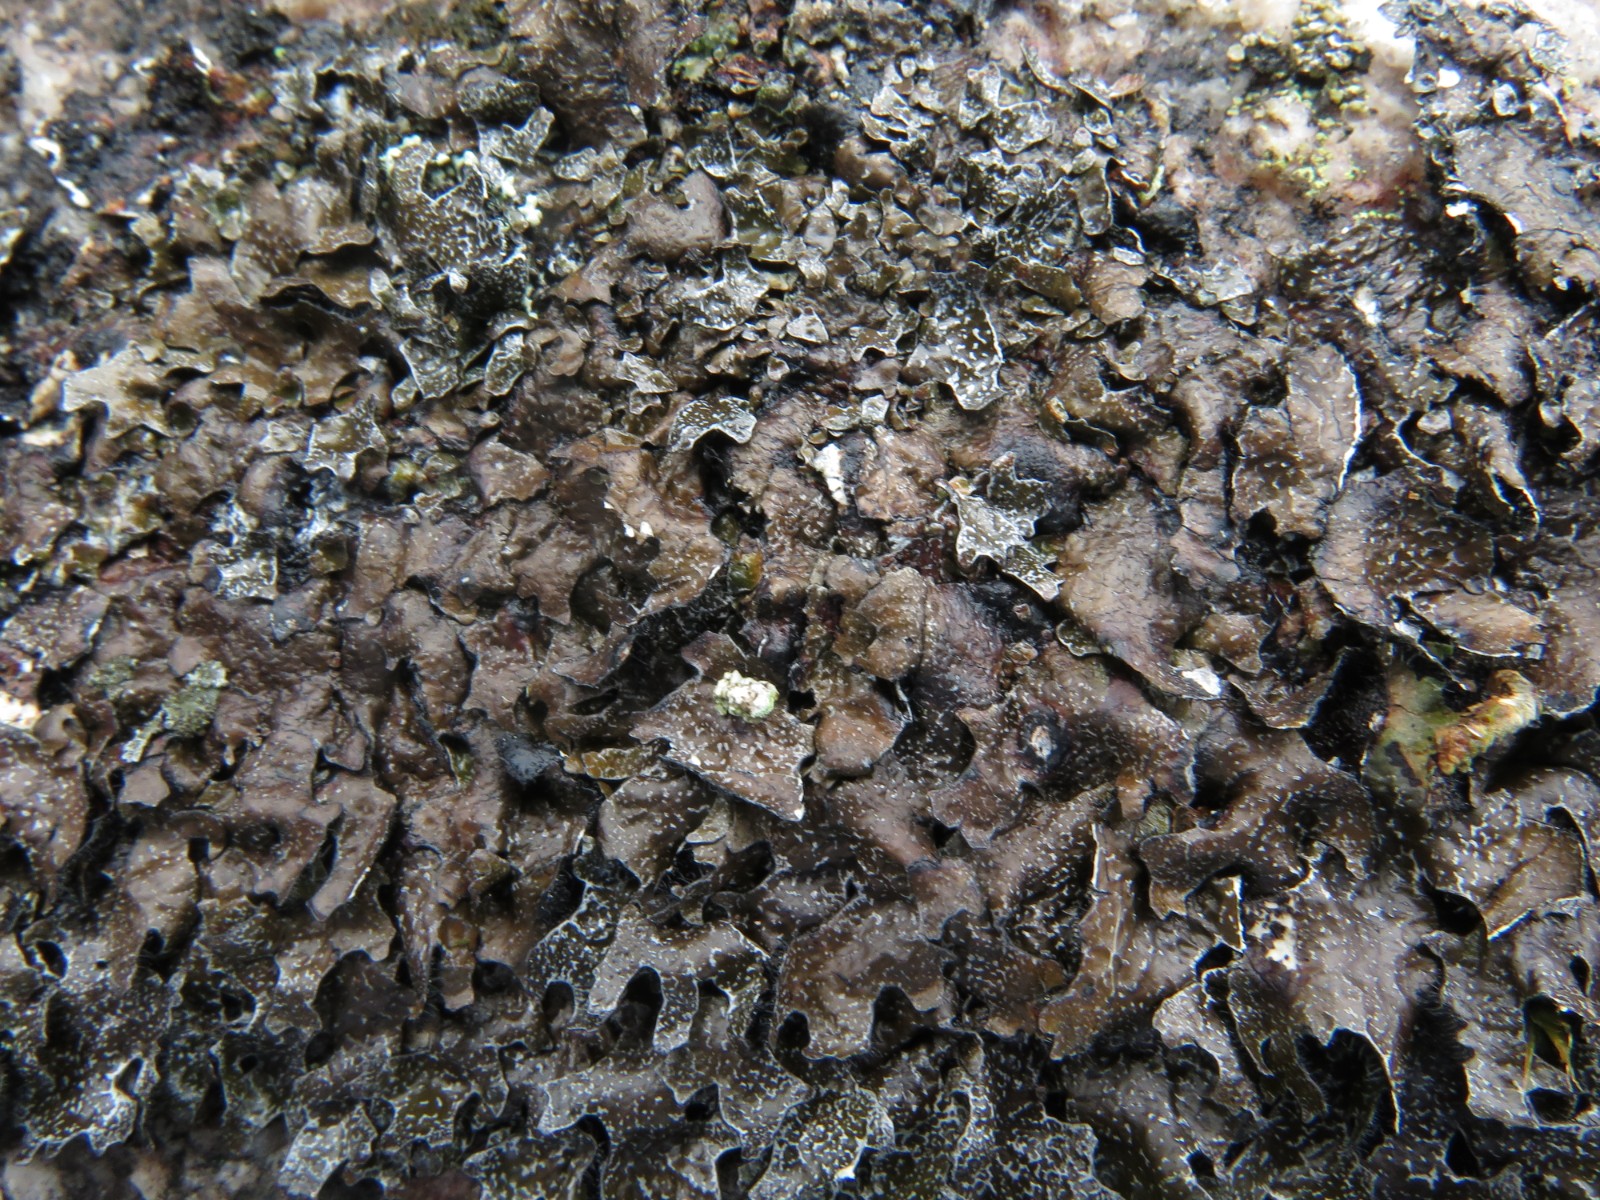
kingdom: Fungi
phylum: Ascomycota
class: Lecanoromycetes
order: Lecanorales
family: Parmeliaceae
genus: Parmelia
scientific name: Parmelia omphalodes
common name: bronze-skållav
